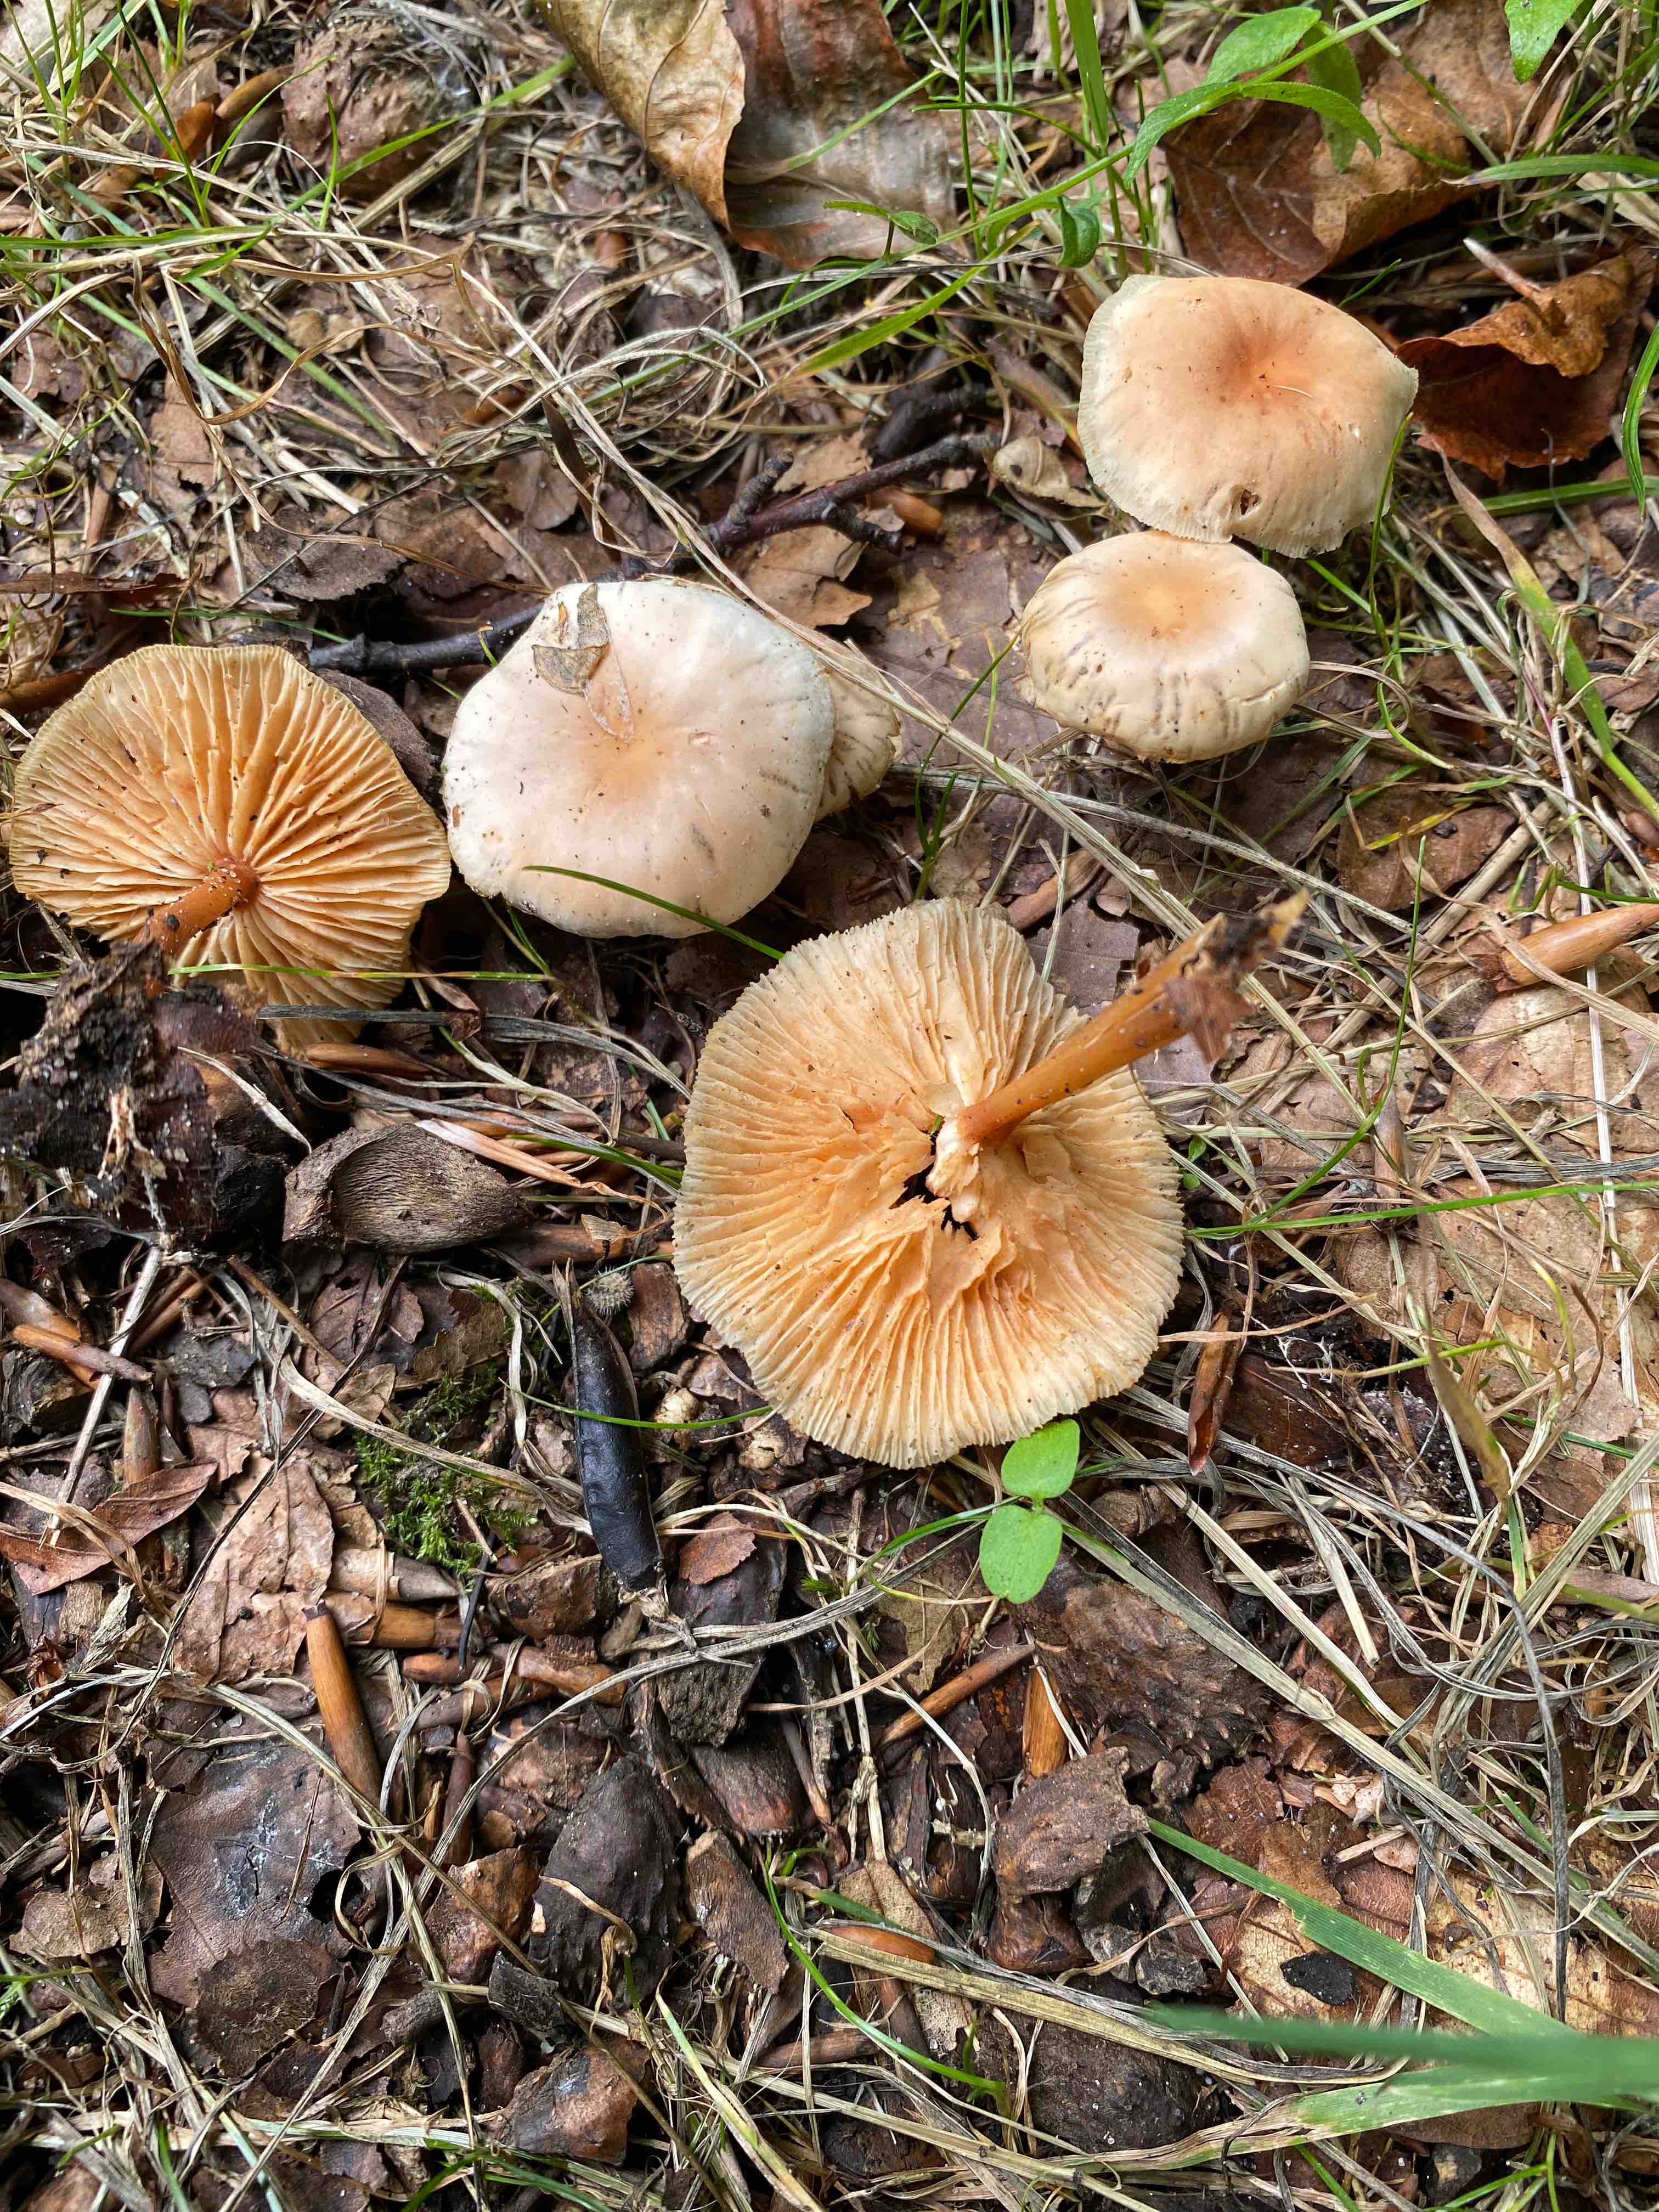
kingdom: Fungi
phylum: Basidiomycota
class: Agaricomycetes
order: Agaricales
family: Marasmiaceae
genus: Marasmius
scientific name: Marasmius oreades
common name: elledans-bruskhat
